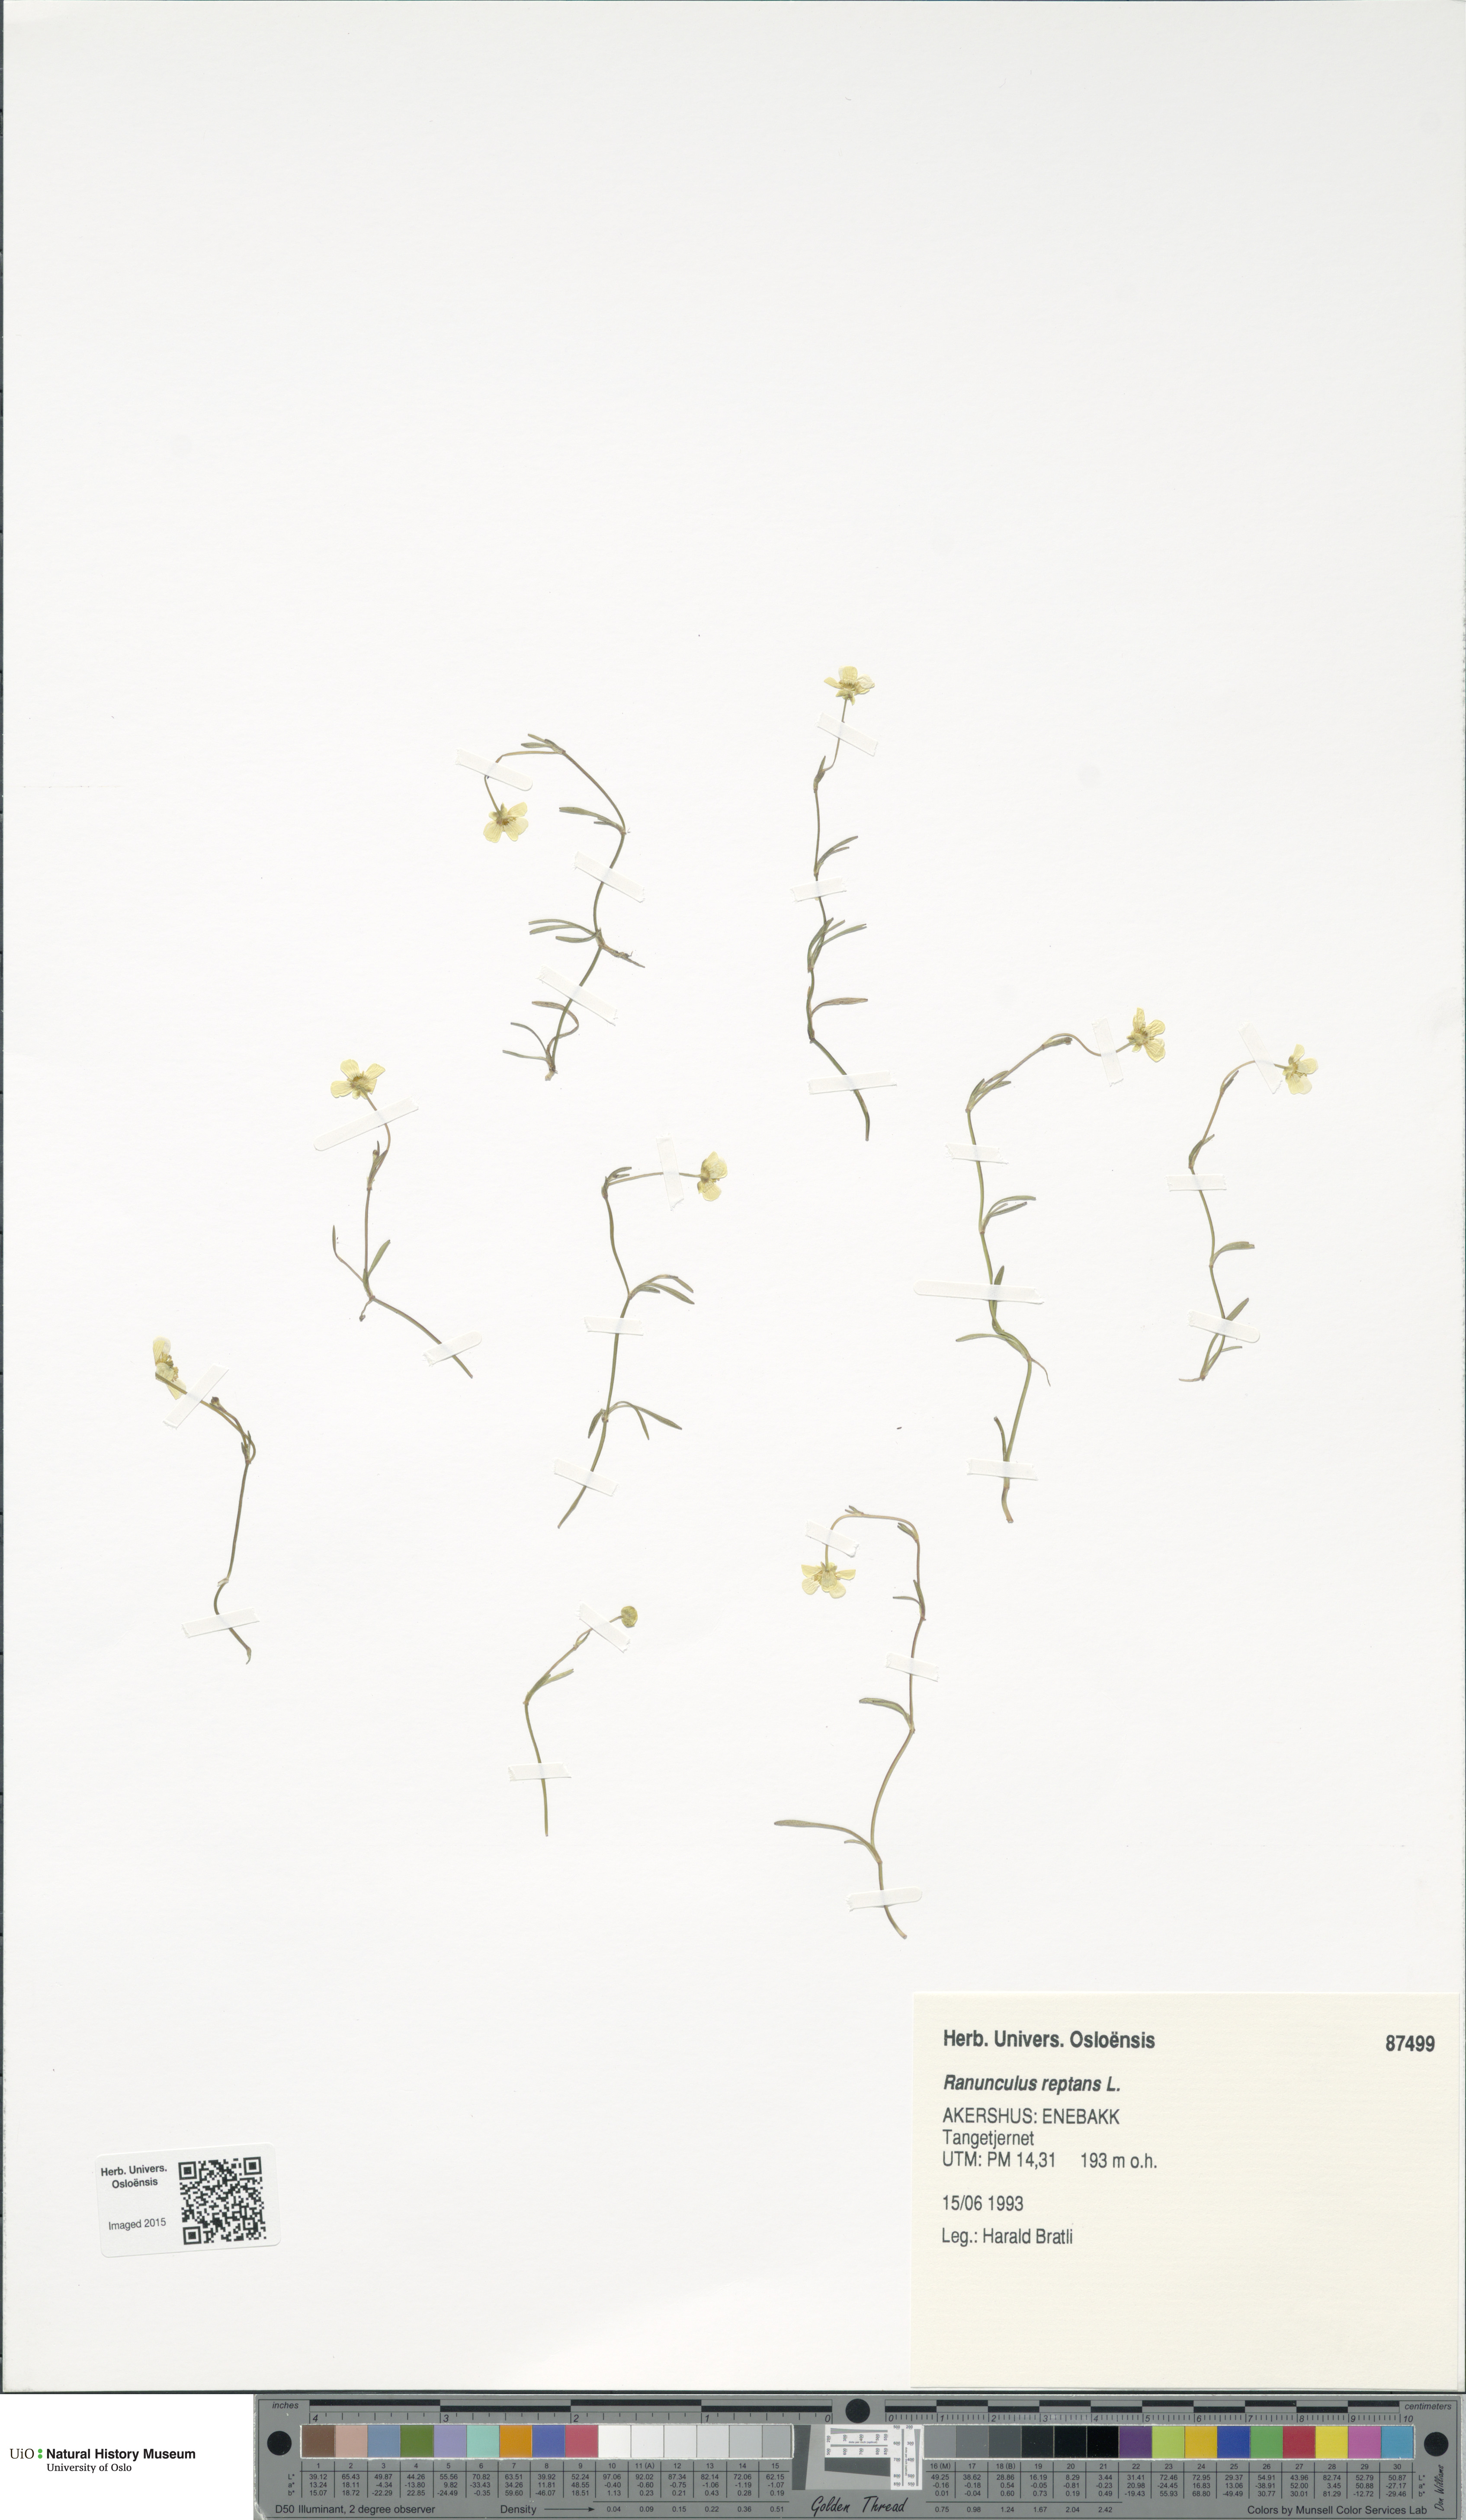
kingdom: Plantae
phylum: Tracheophyta
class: Magnoliopsida
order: Ranunculales
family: Ranunculaceae
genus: Ranunculus
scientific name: Ranunculus reptans
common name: Creeping spearwort
